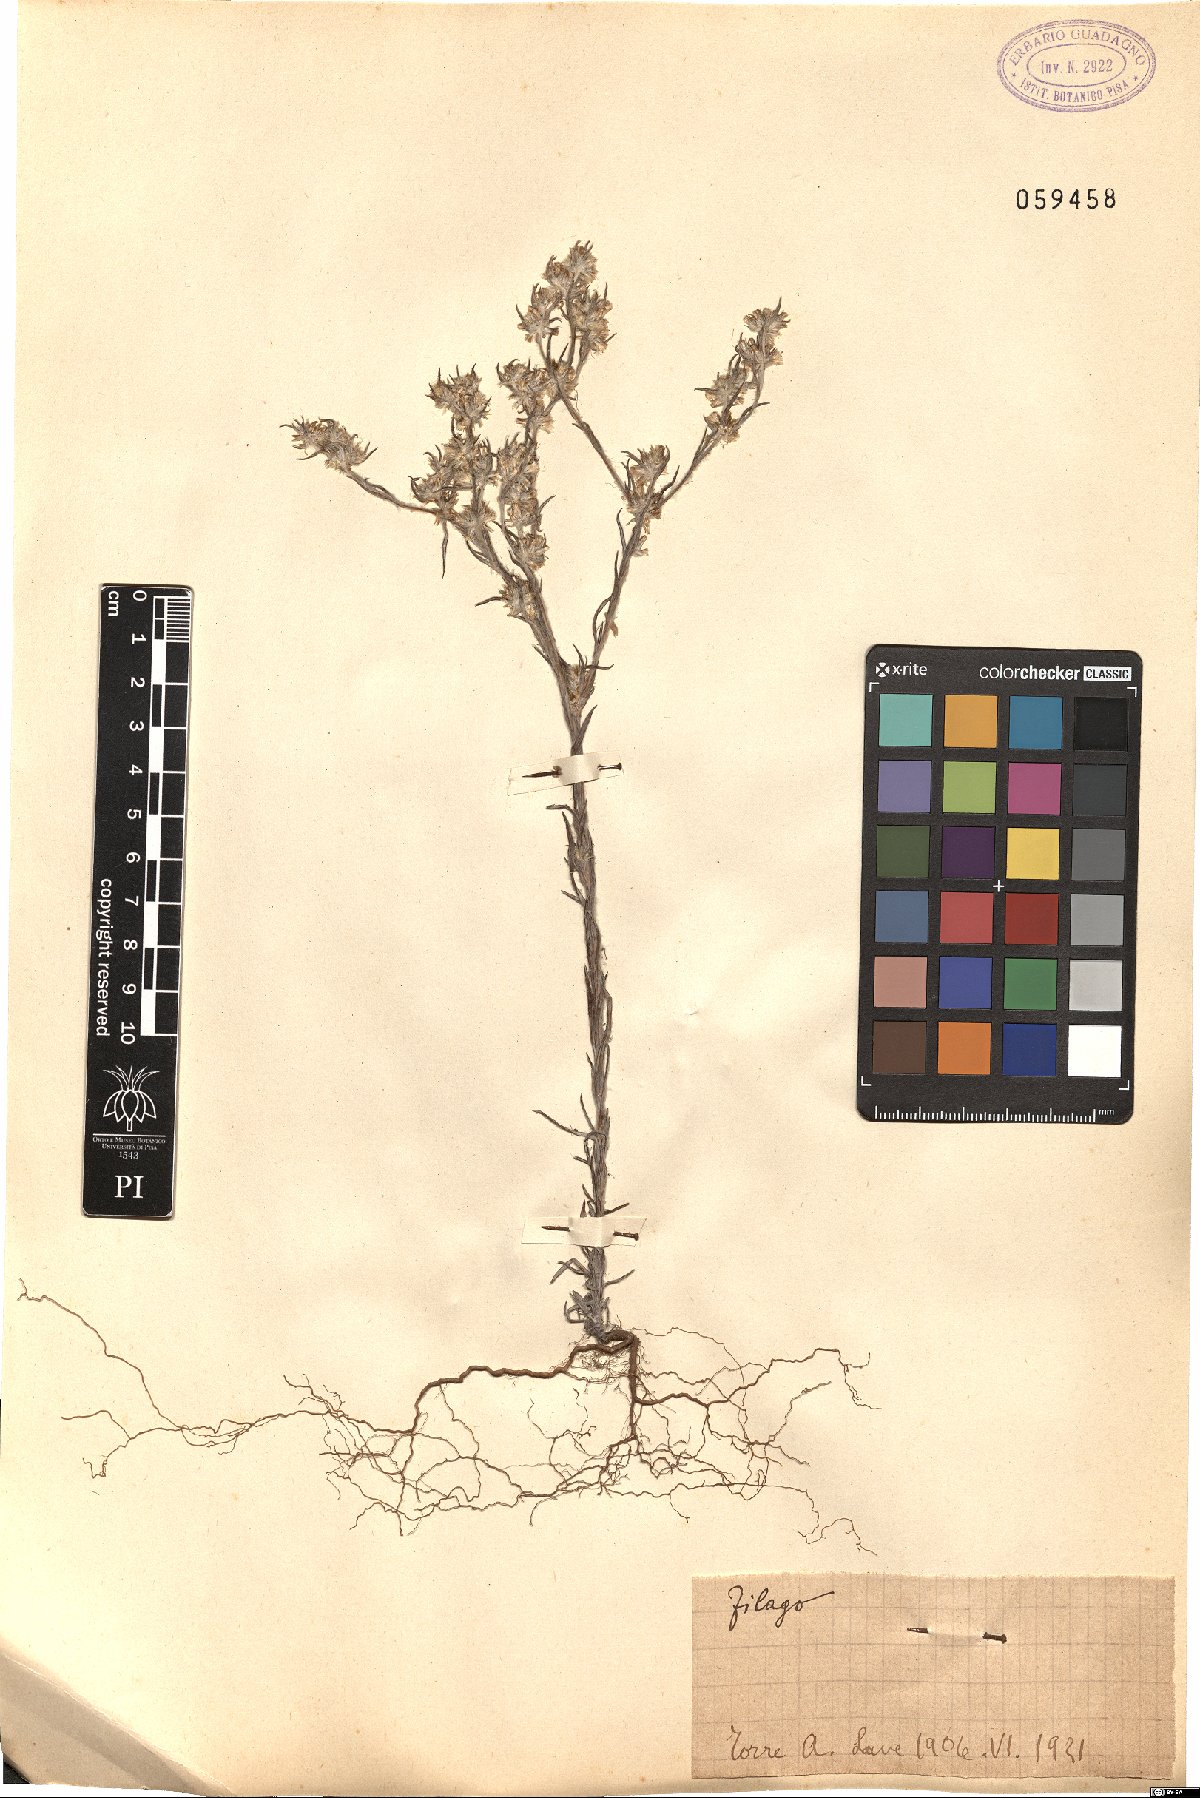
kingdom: Plantae
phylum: Tracheophyta
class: Magnoliopsida
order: Asterales
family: Asteraceae
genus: Filago
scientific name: Filago
